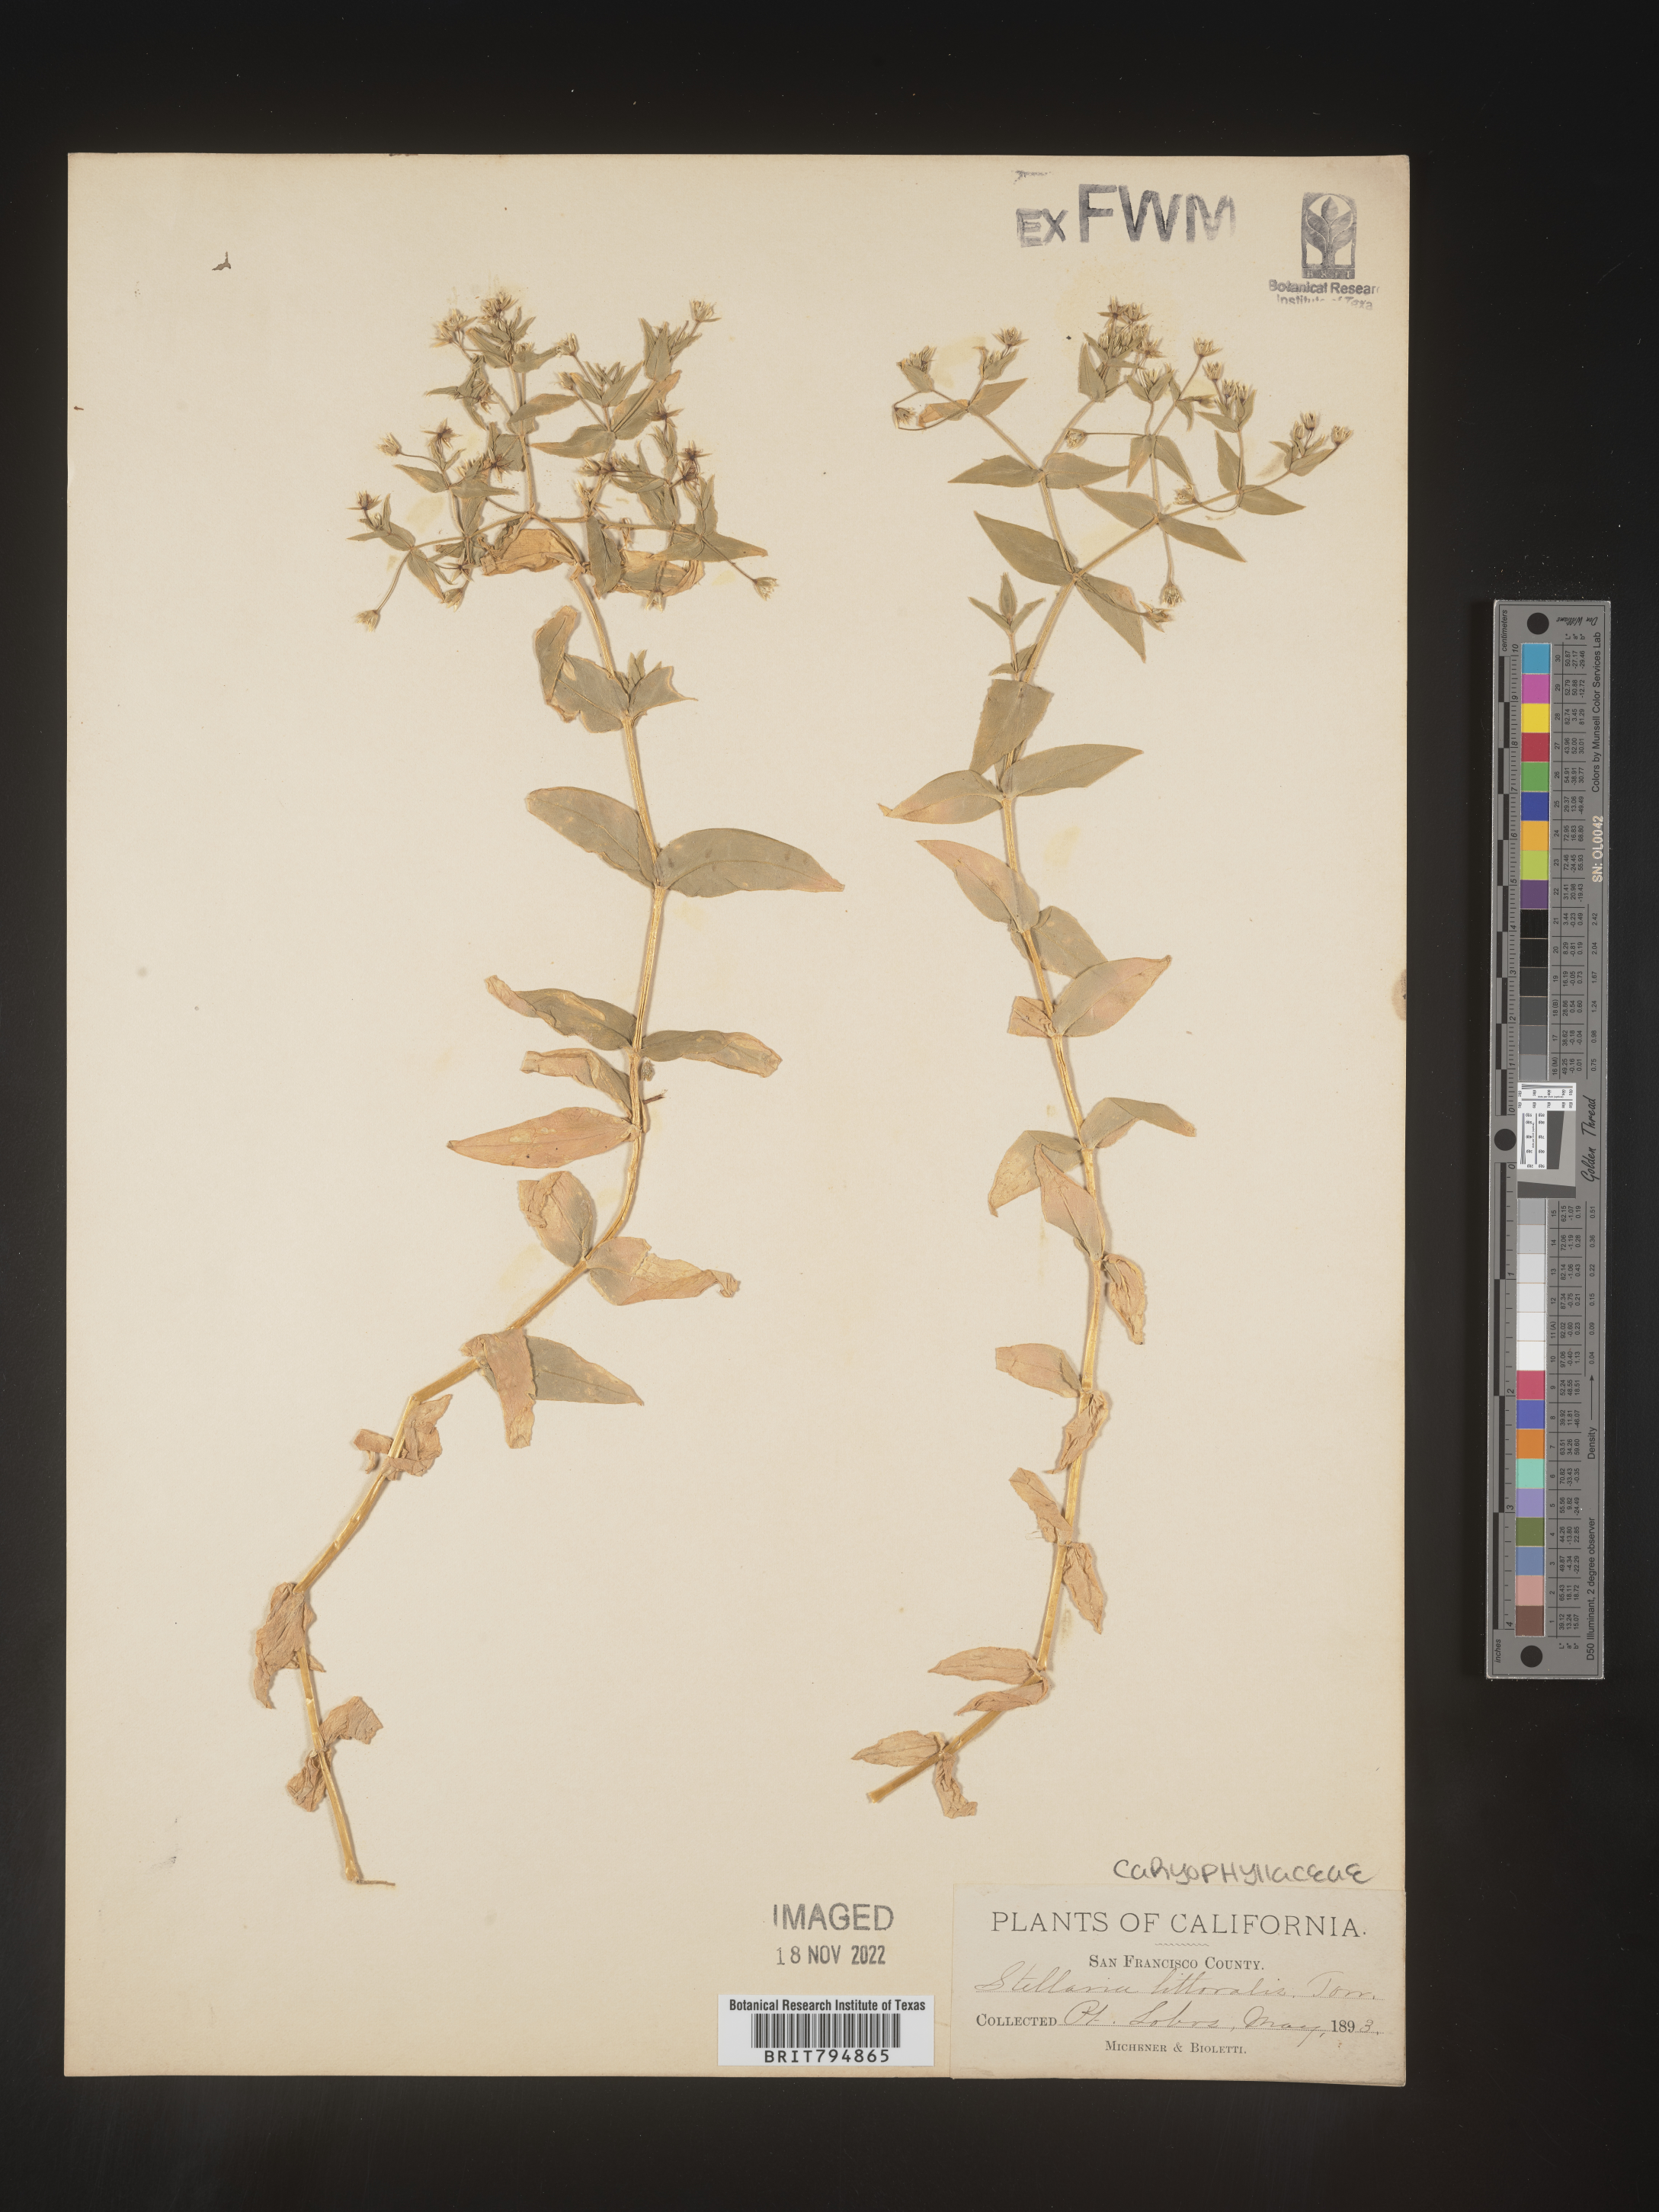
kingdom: Plantae
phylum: Tracheophyta
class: Magnoliopsida
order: Caryophyllales
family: Caryophyllaceae
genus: Stellaria
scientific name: Stellaria littoralis
